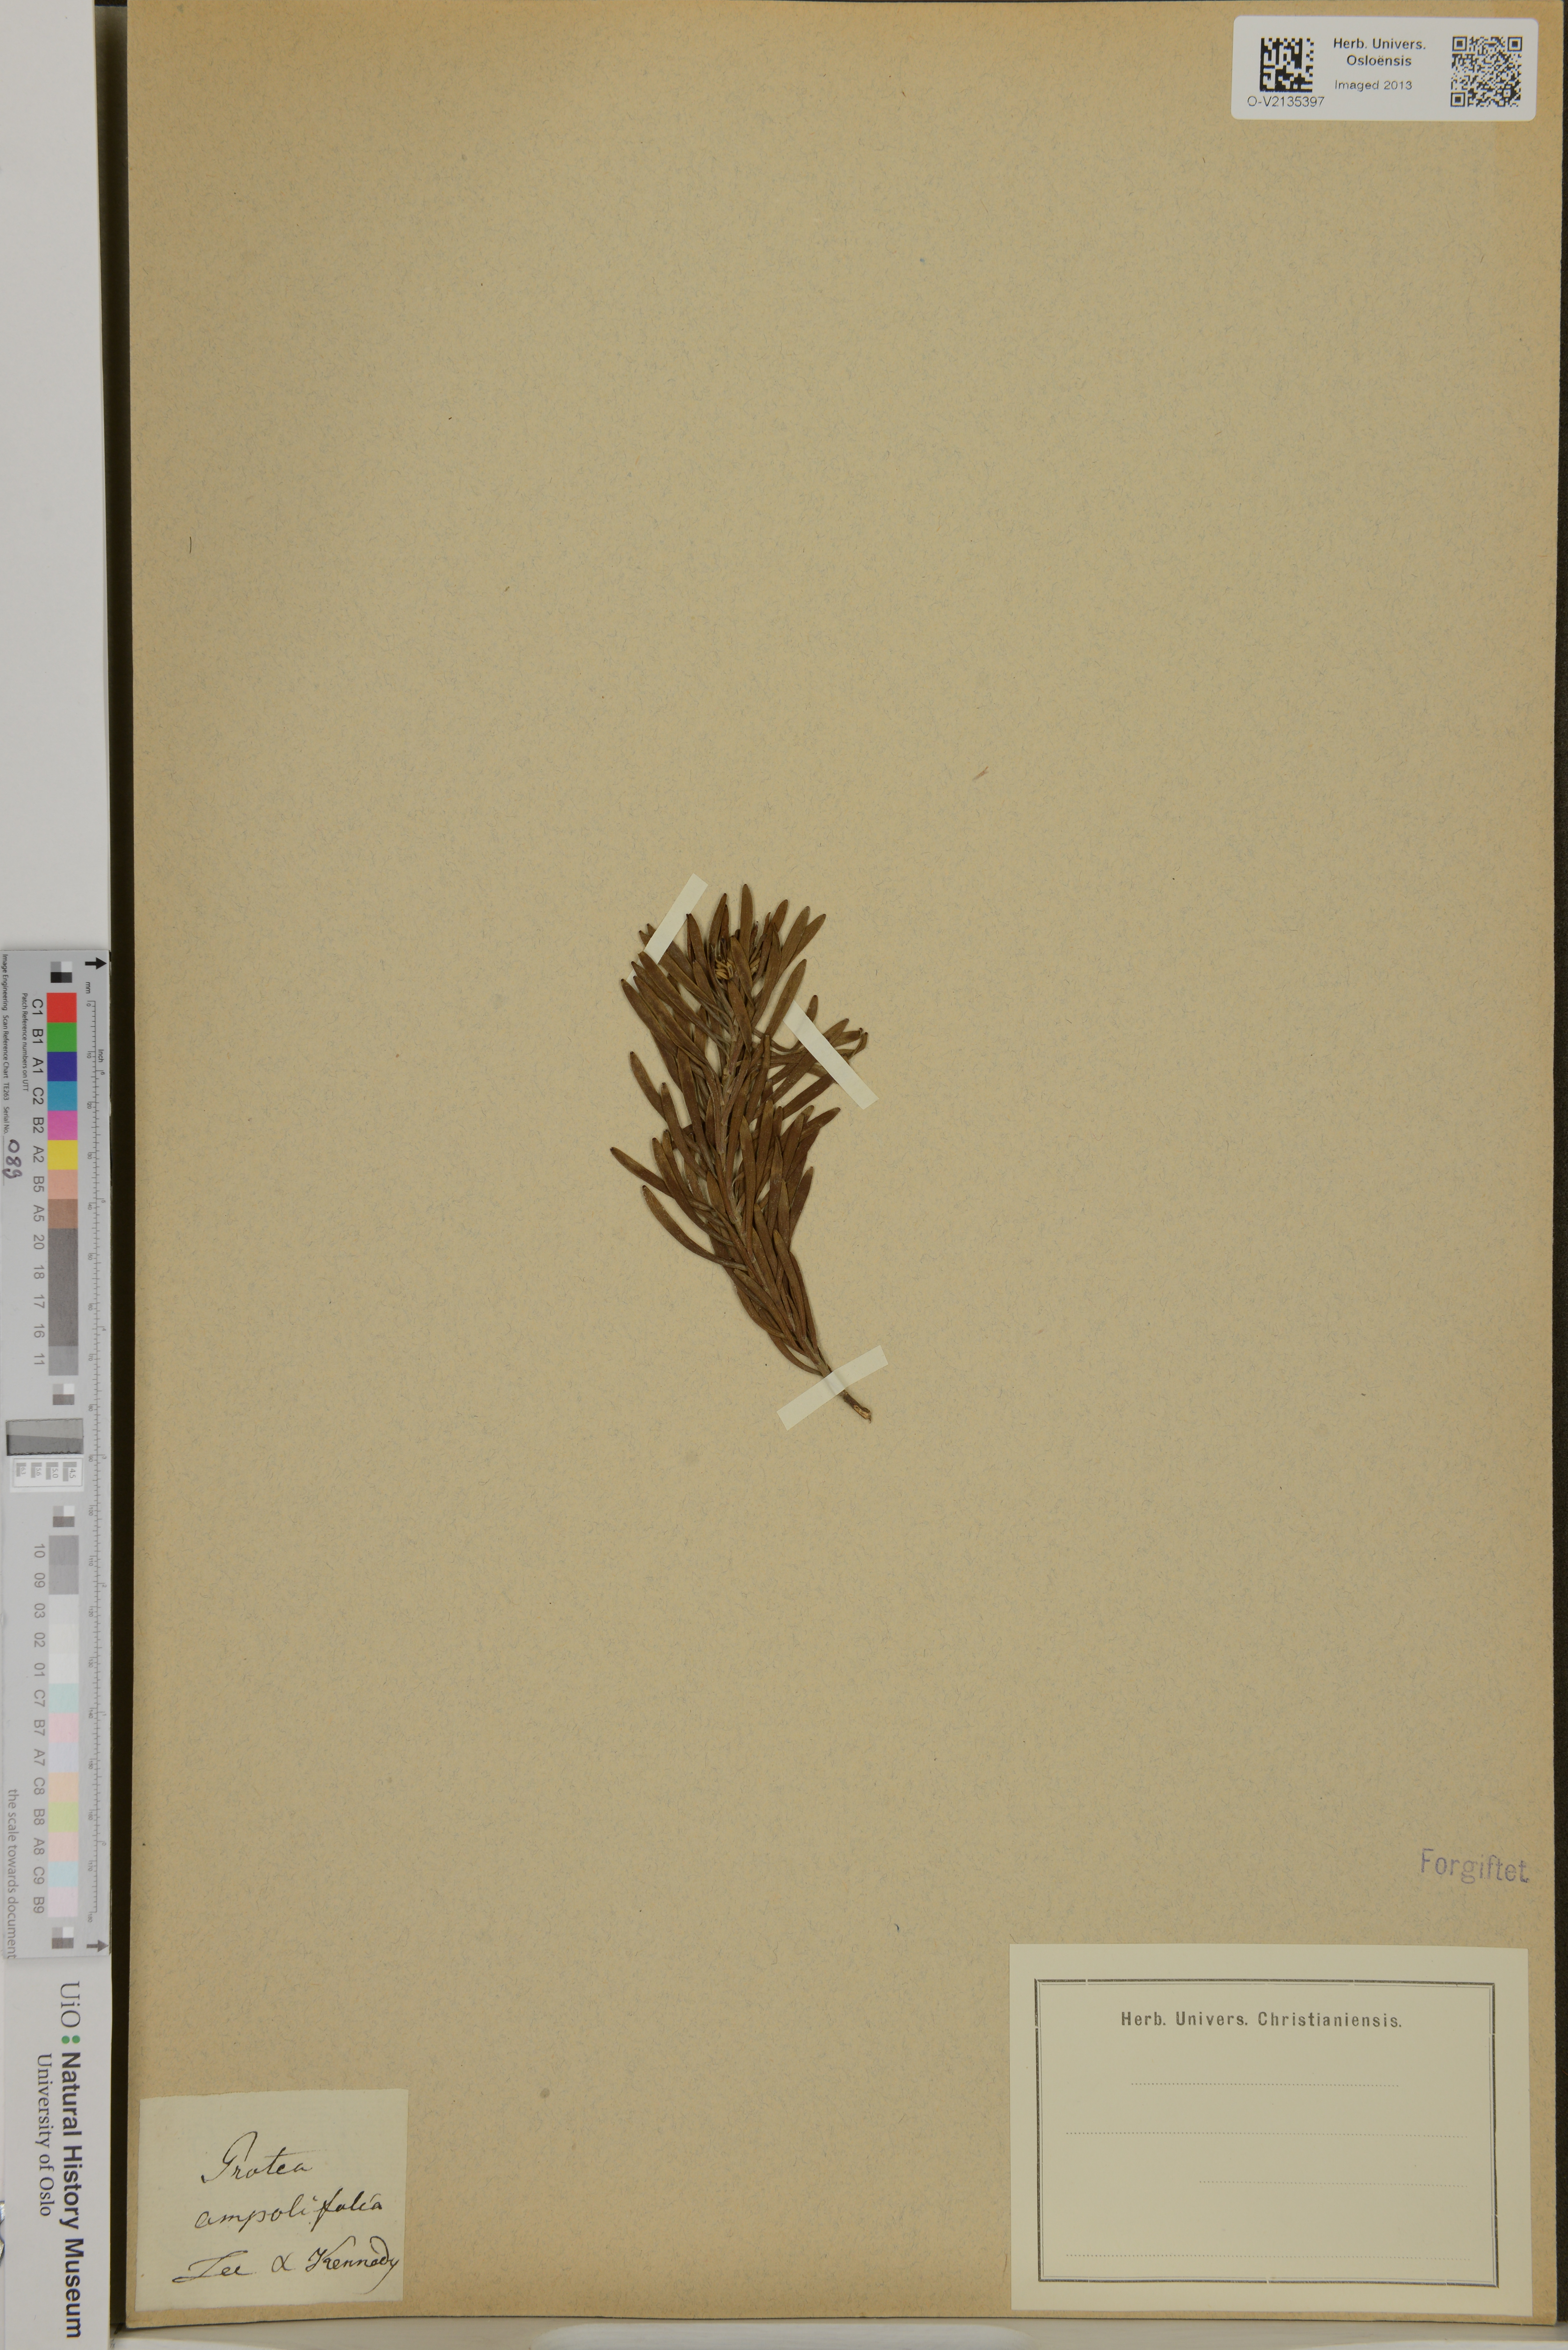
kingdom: Plantae
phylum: Tracheophyta
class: Magnoliopsida
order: Proteales
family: Proteaceae
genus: Protea
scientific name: Protea
